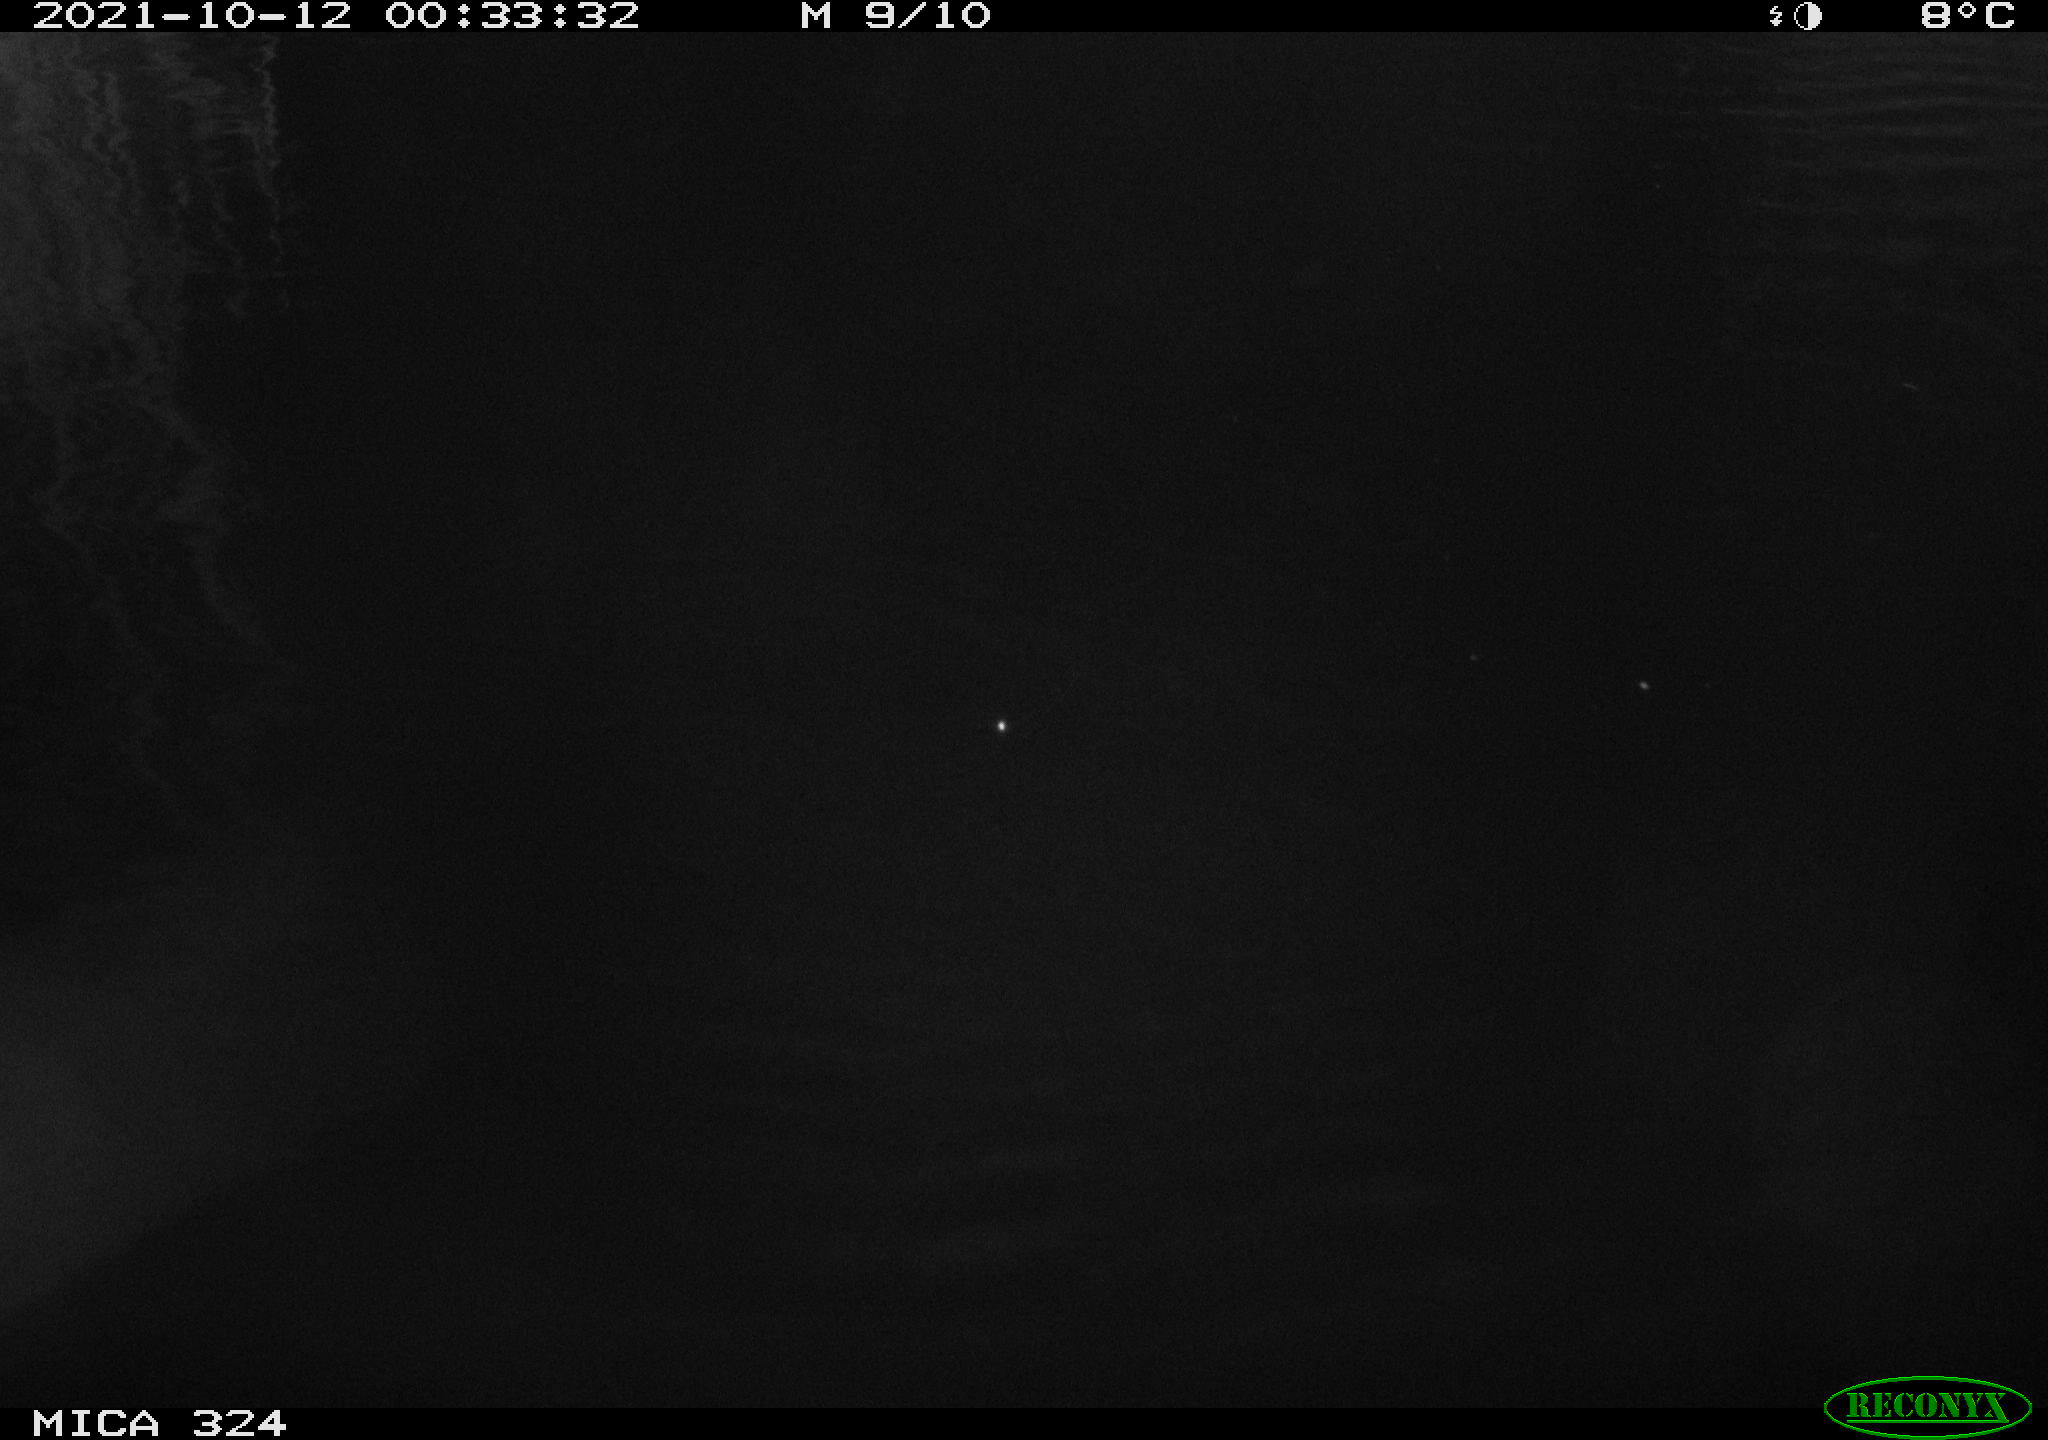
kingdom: Animalia
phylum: Chordata
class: Mammalia
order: Rodentia
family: Cricetidae
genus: Ondatra
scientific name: Ondatra zibethicus
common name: Muskrat
